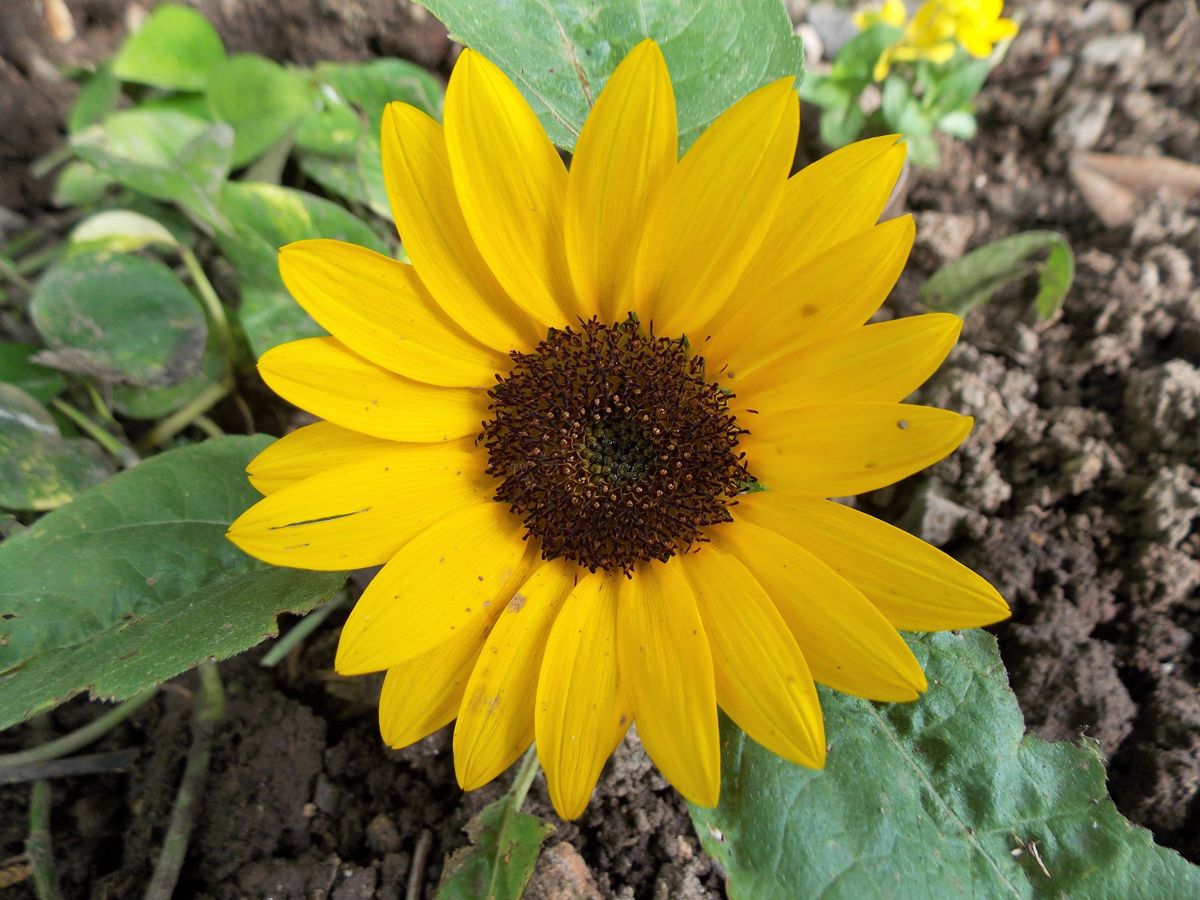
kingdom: Plantae
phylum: Tracheophyta
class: Magnoliopsida
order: Asterales
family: Asteraceae
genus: Helianthus
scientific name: Helianthus annuus
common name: Sunflower
